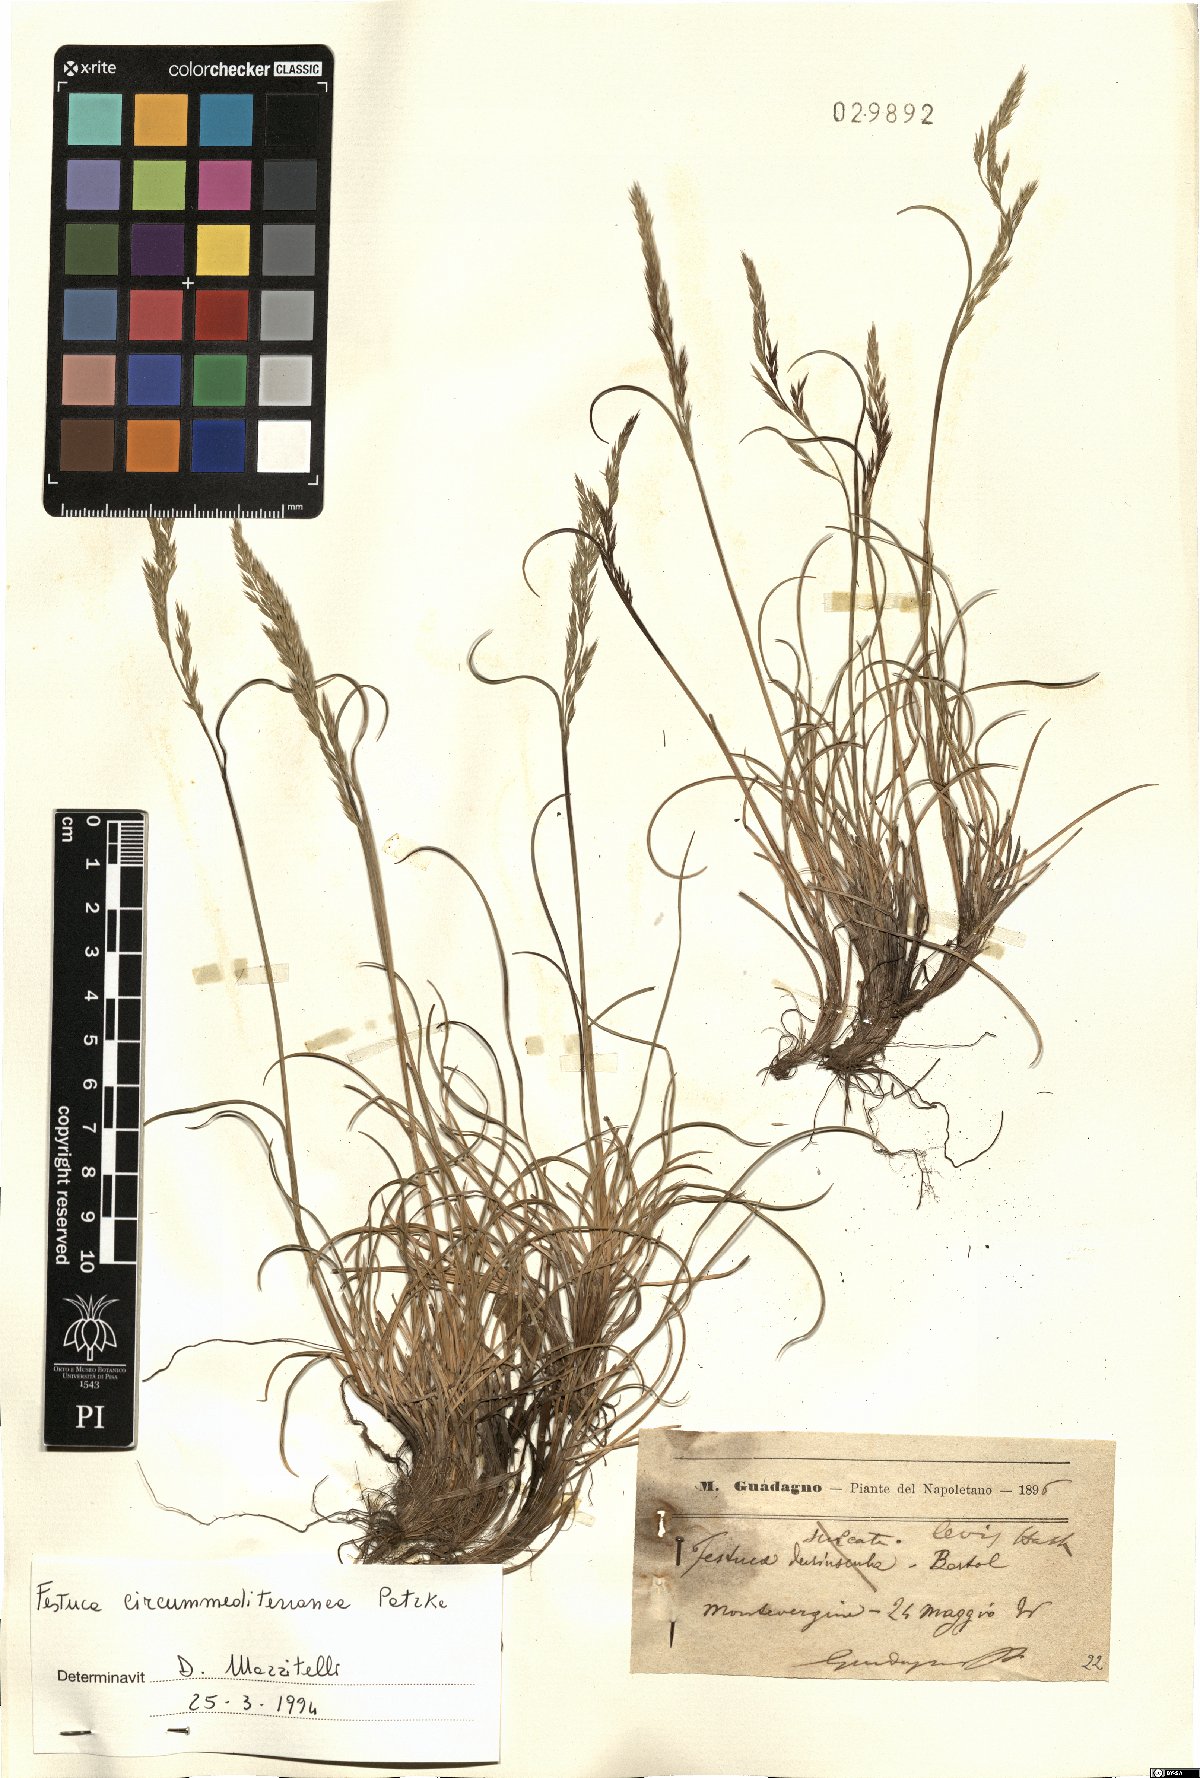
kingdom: Plantae
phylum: Tracheophyta
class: Liliopsida
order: Poales
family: Poaceae
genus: Festuca
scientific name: Festuca circummediterranea
